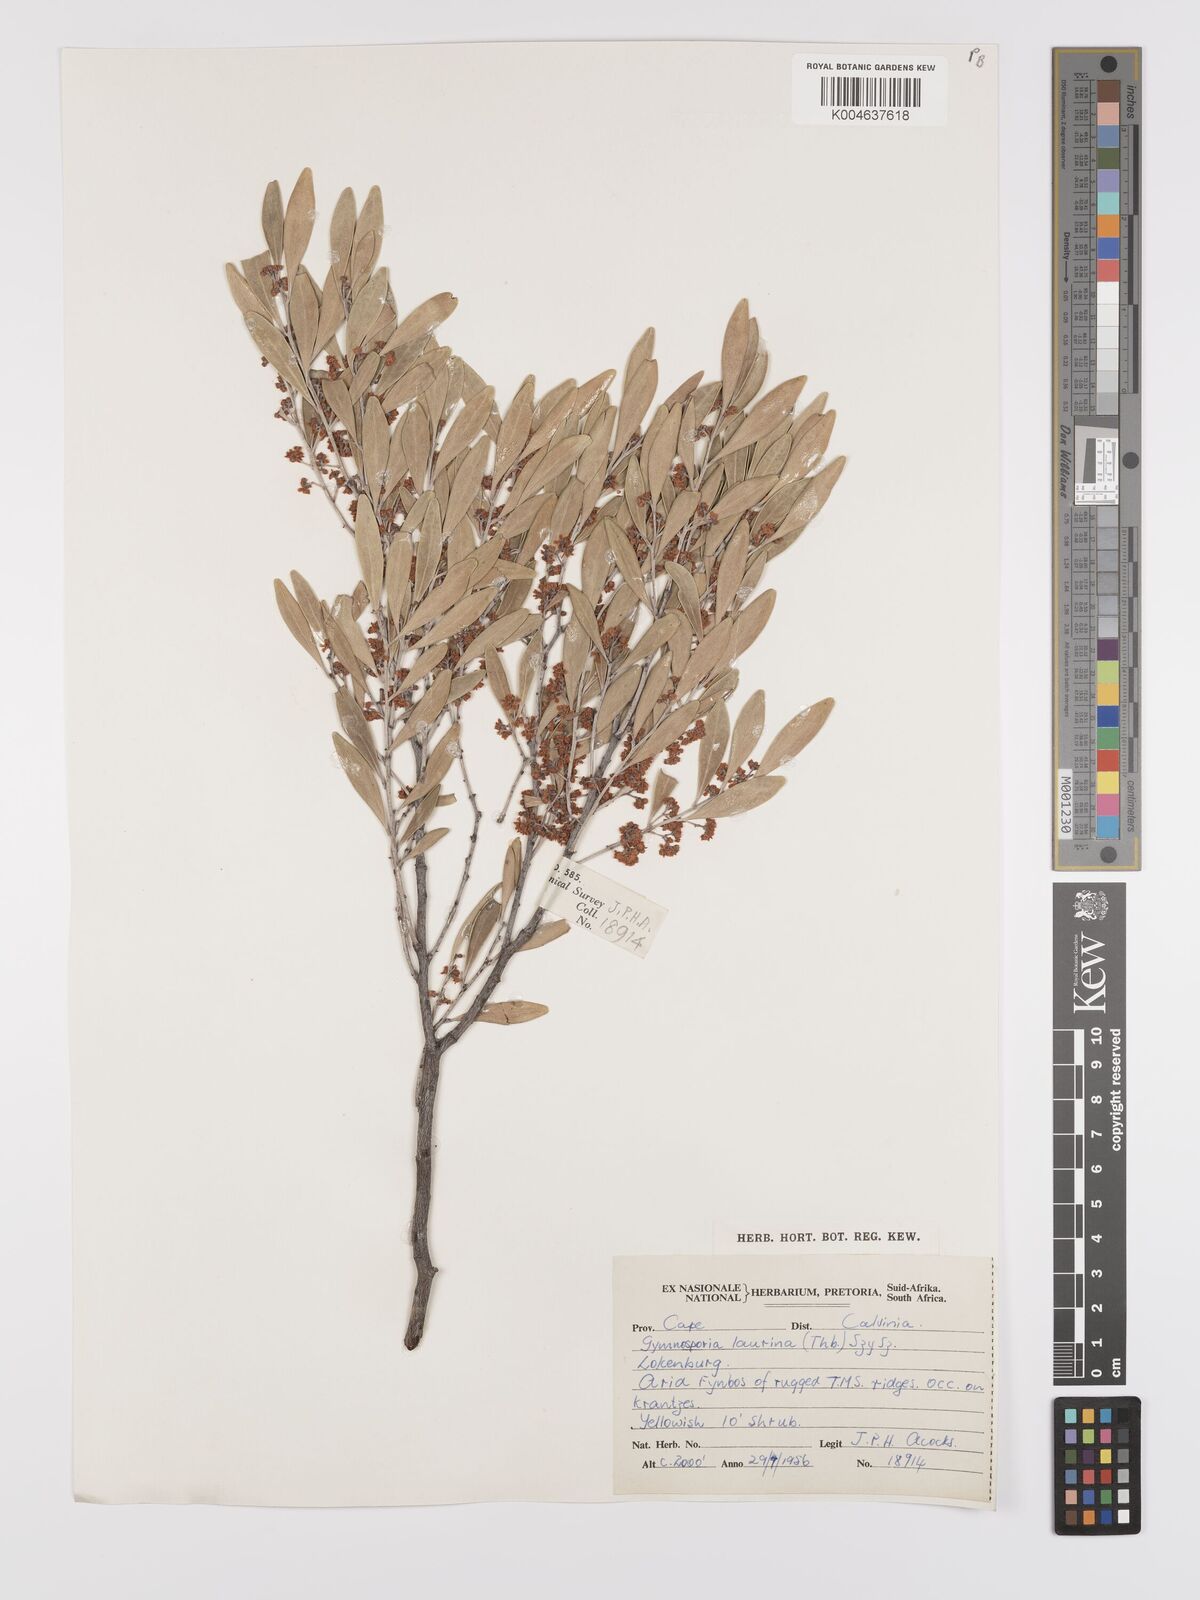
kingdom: Plantae
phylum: Tracheophyta
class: Magnoliopsida
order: Celastrales
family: Celastraceae
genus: Monteverdia
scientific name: Monteverdia laurina
